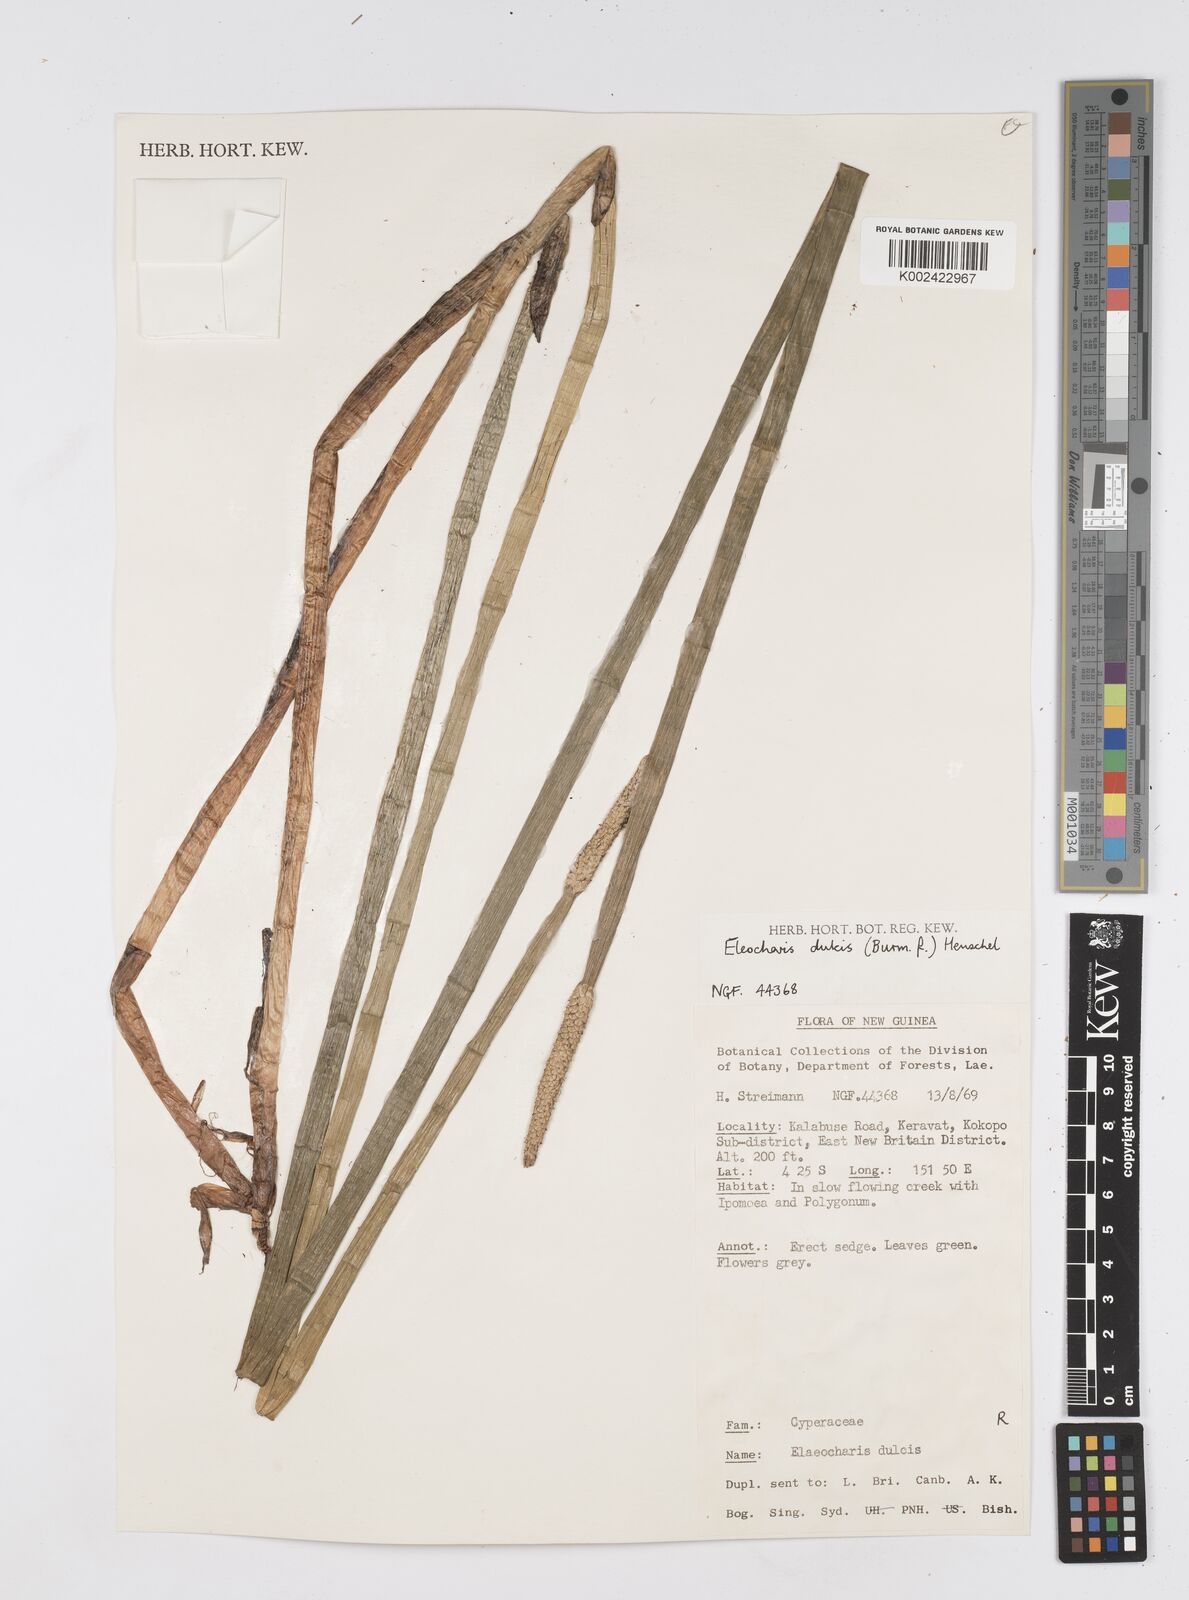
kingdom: Plantae
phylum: Tracheophyta
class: Liliopsida
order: Poales
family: Cyperaceae
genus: Eleocharis
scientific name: Eleocharis dulcis
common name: Chinese water chestnut
